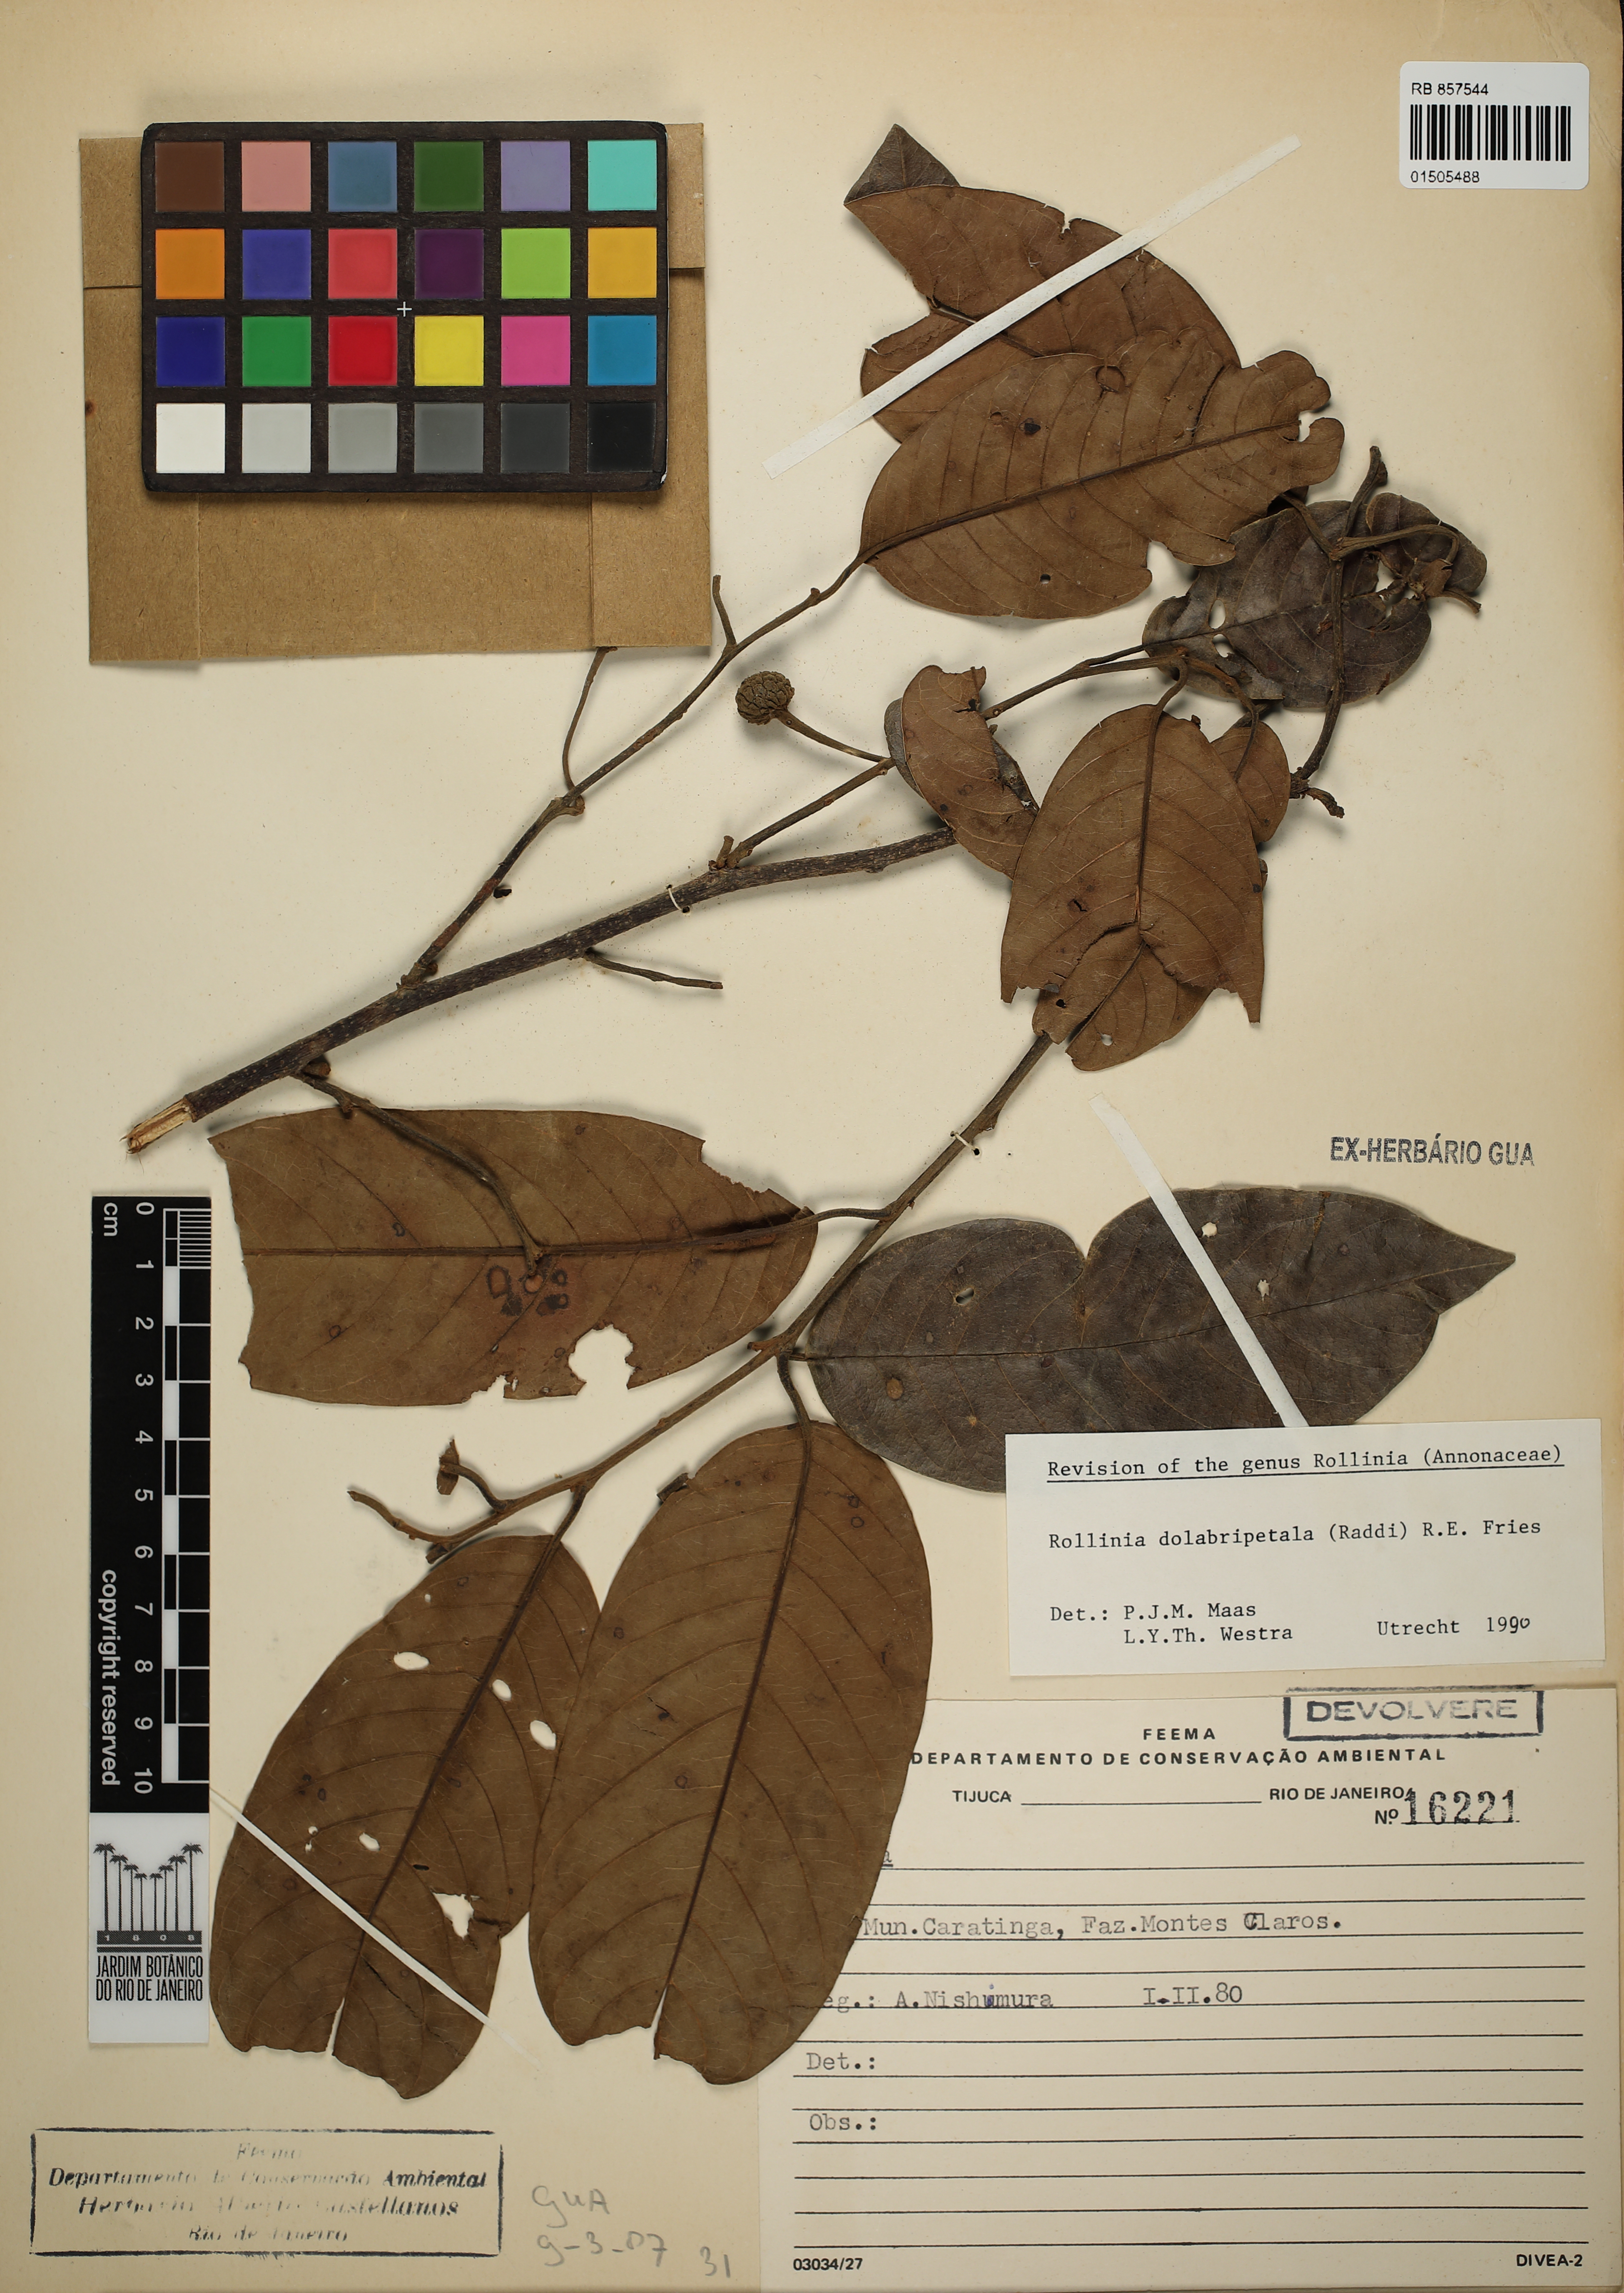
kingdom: Plantae
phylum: Tracheophyta
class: Magnoliopsida
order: Magnoliales
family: Annonaceae
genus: Annona
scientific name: Annona dolabripetala
